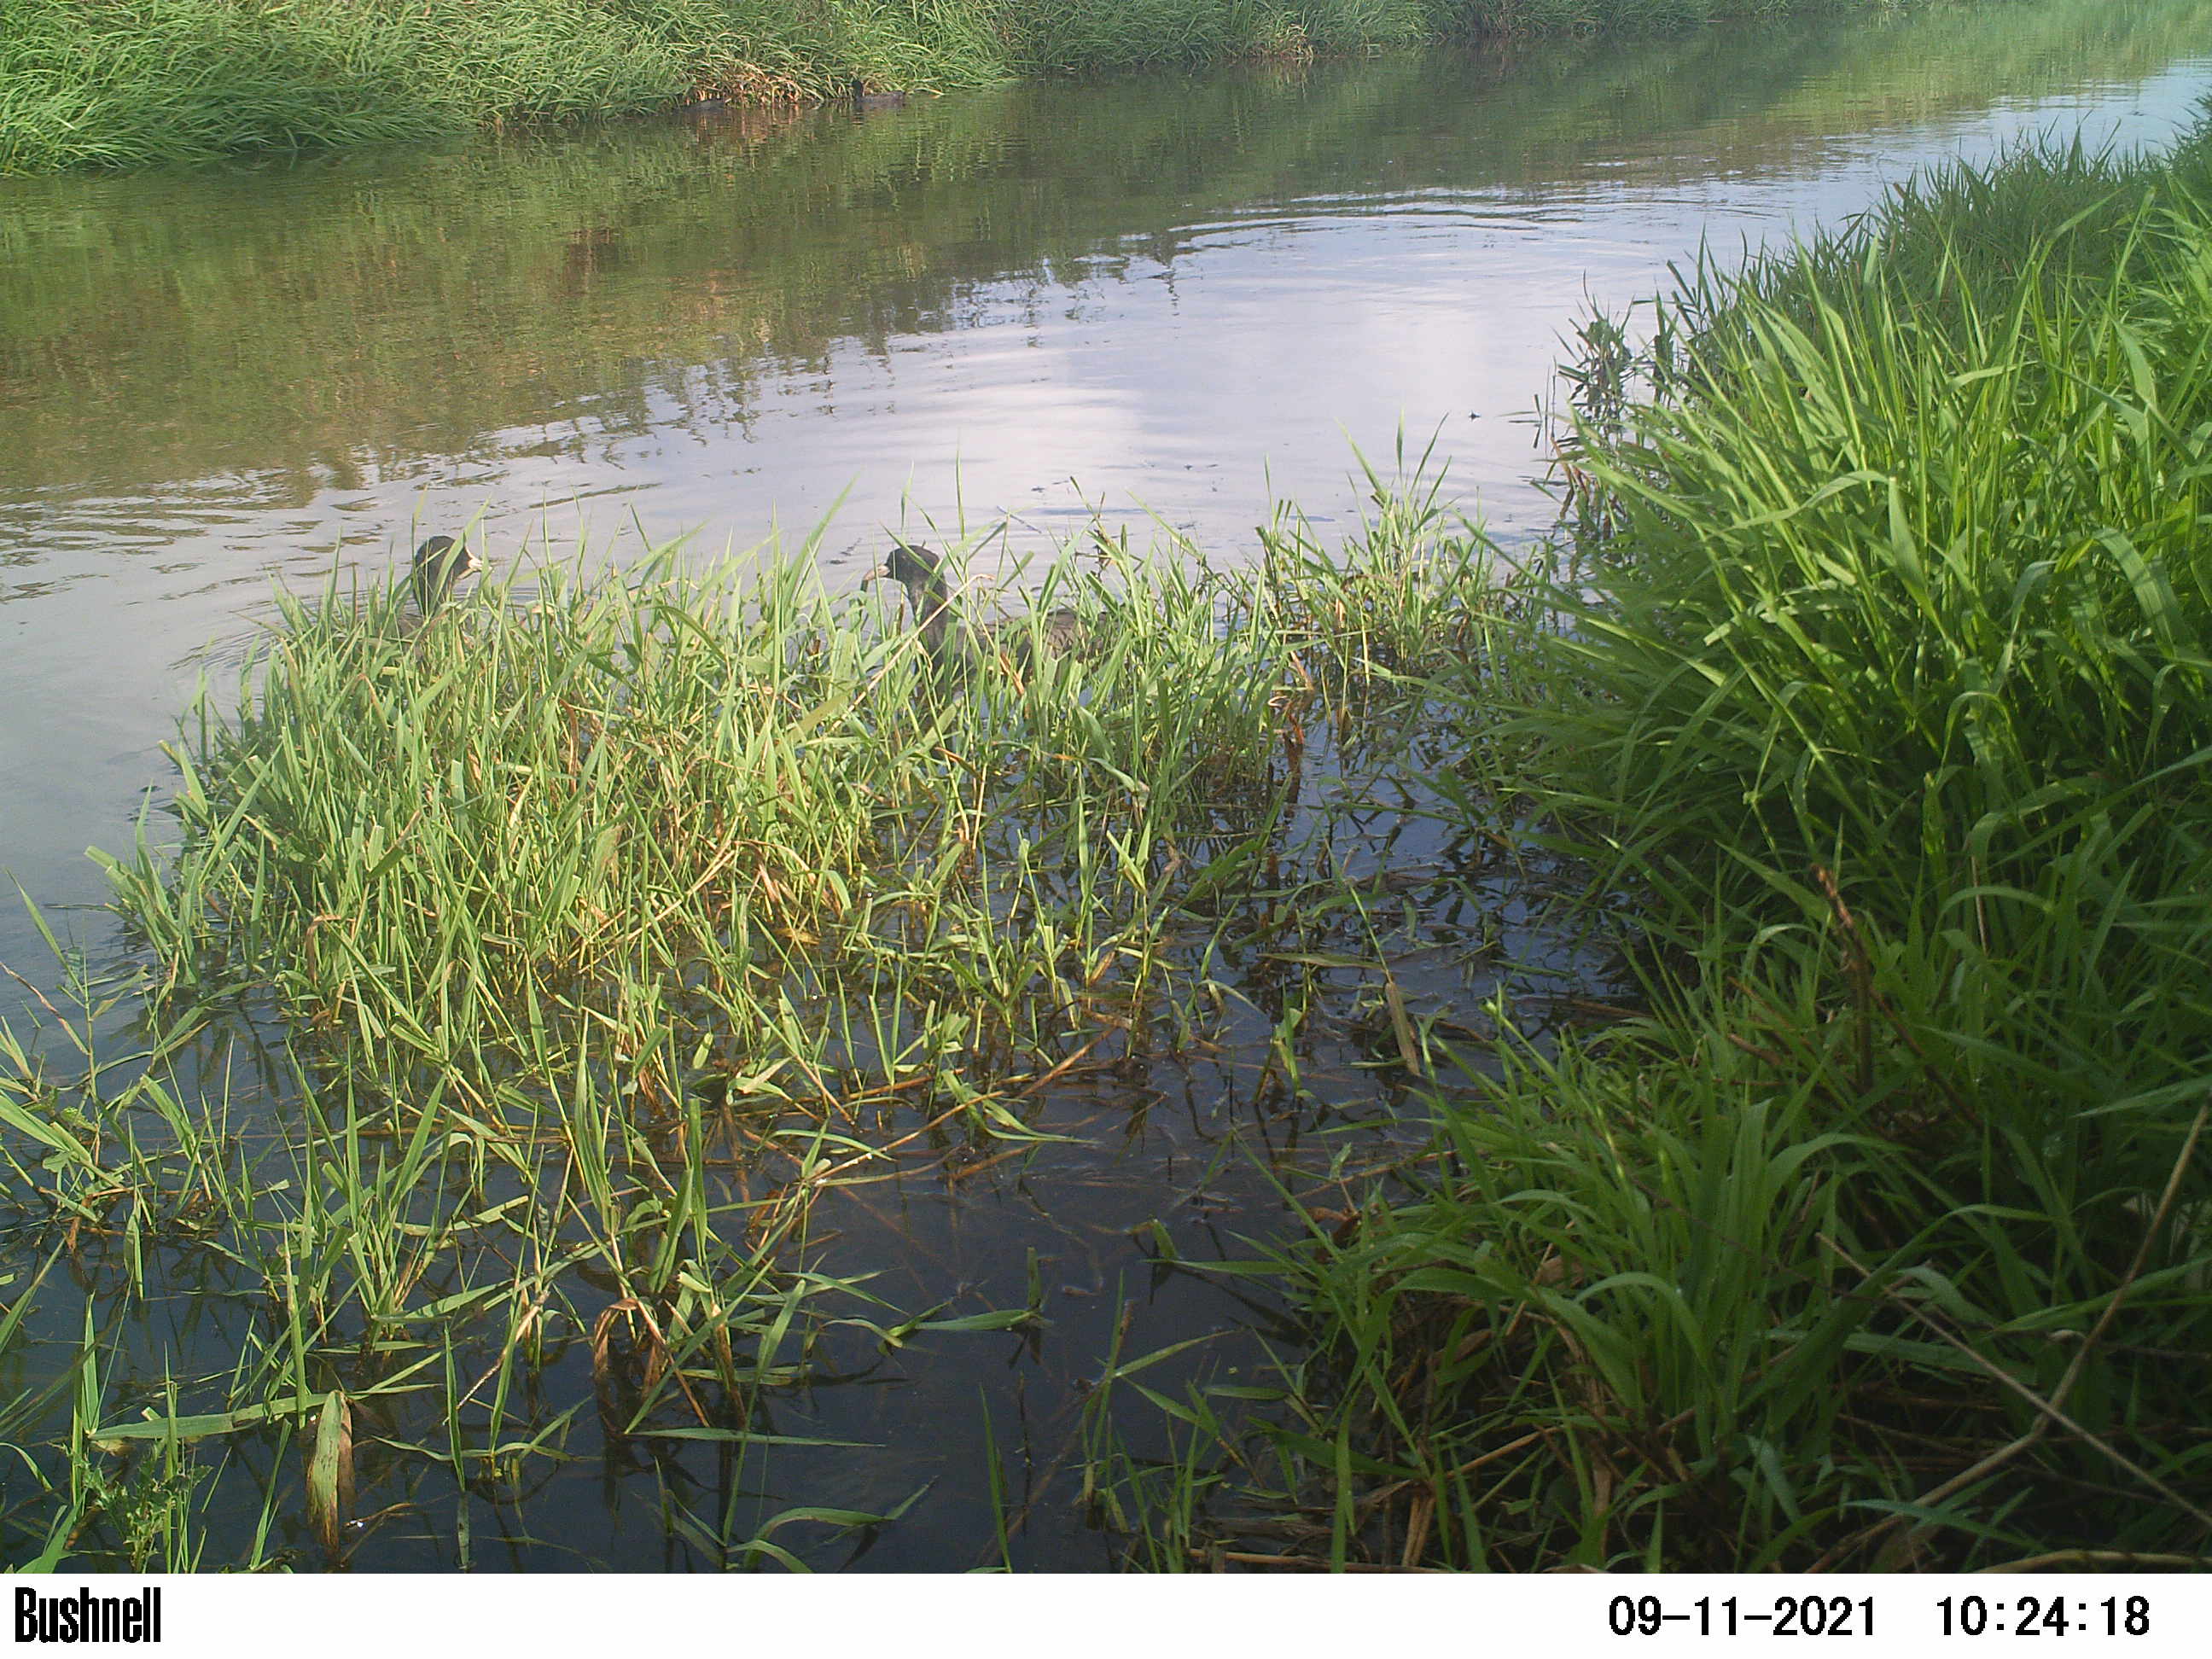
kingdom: Animalia
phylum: Chordata
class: Aves
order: Gruiformes
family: Rallidae
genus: Fulica
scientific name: Fulica atra
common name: Eurasian coot
